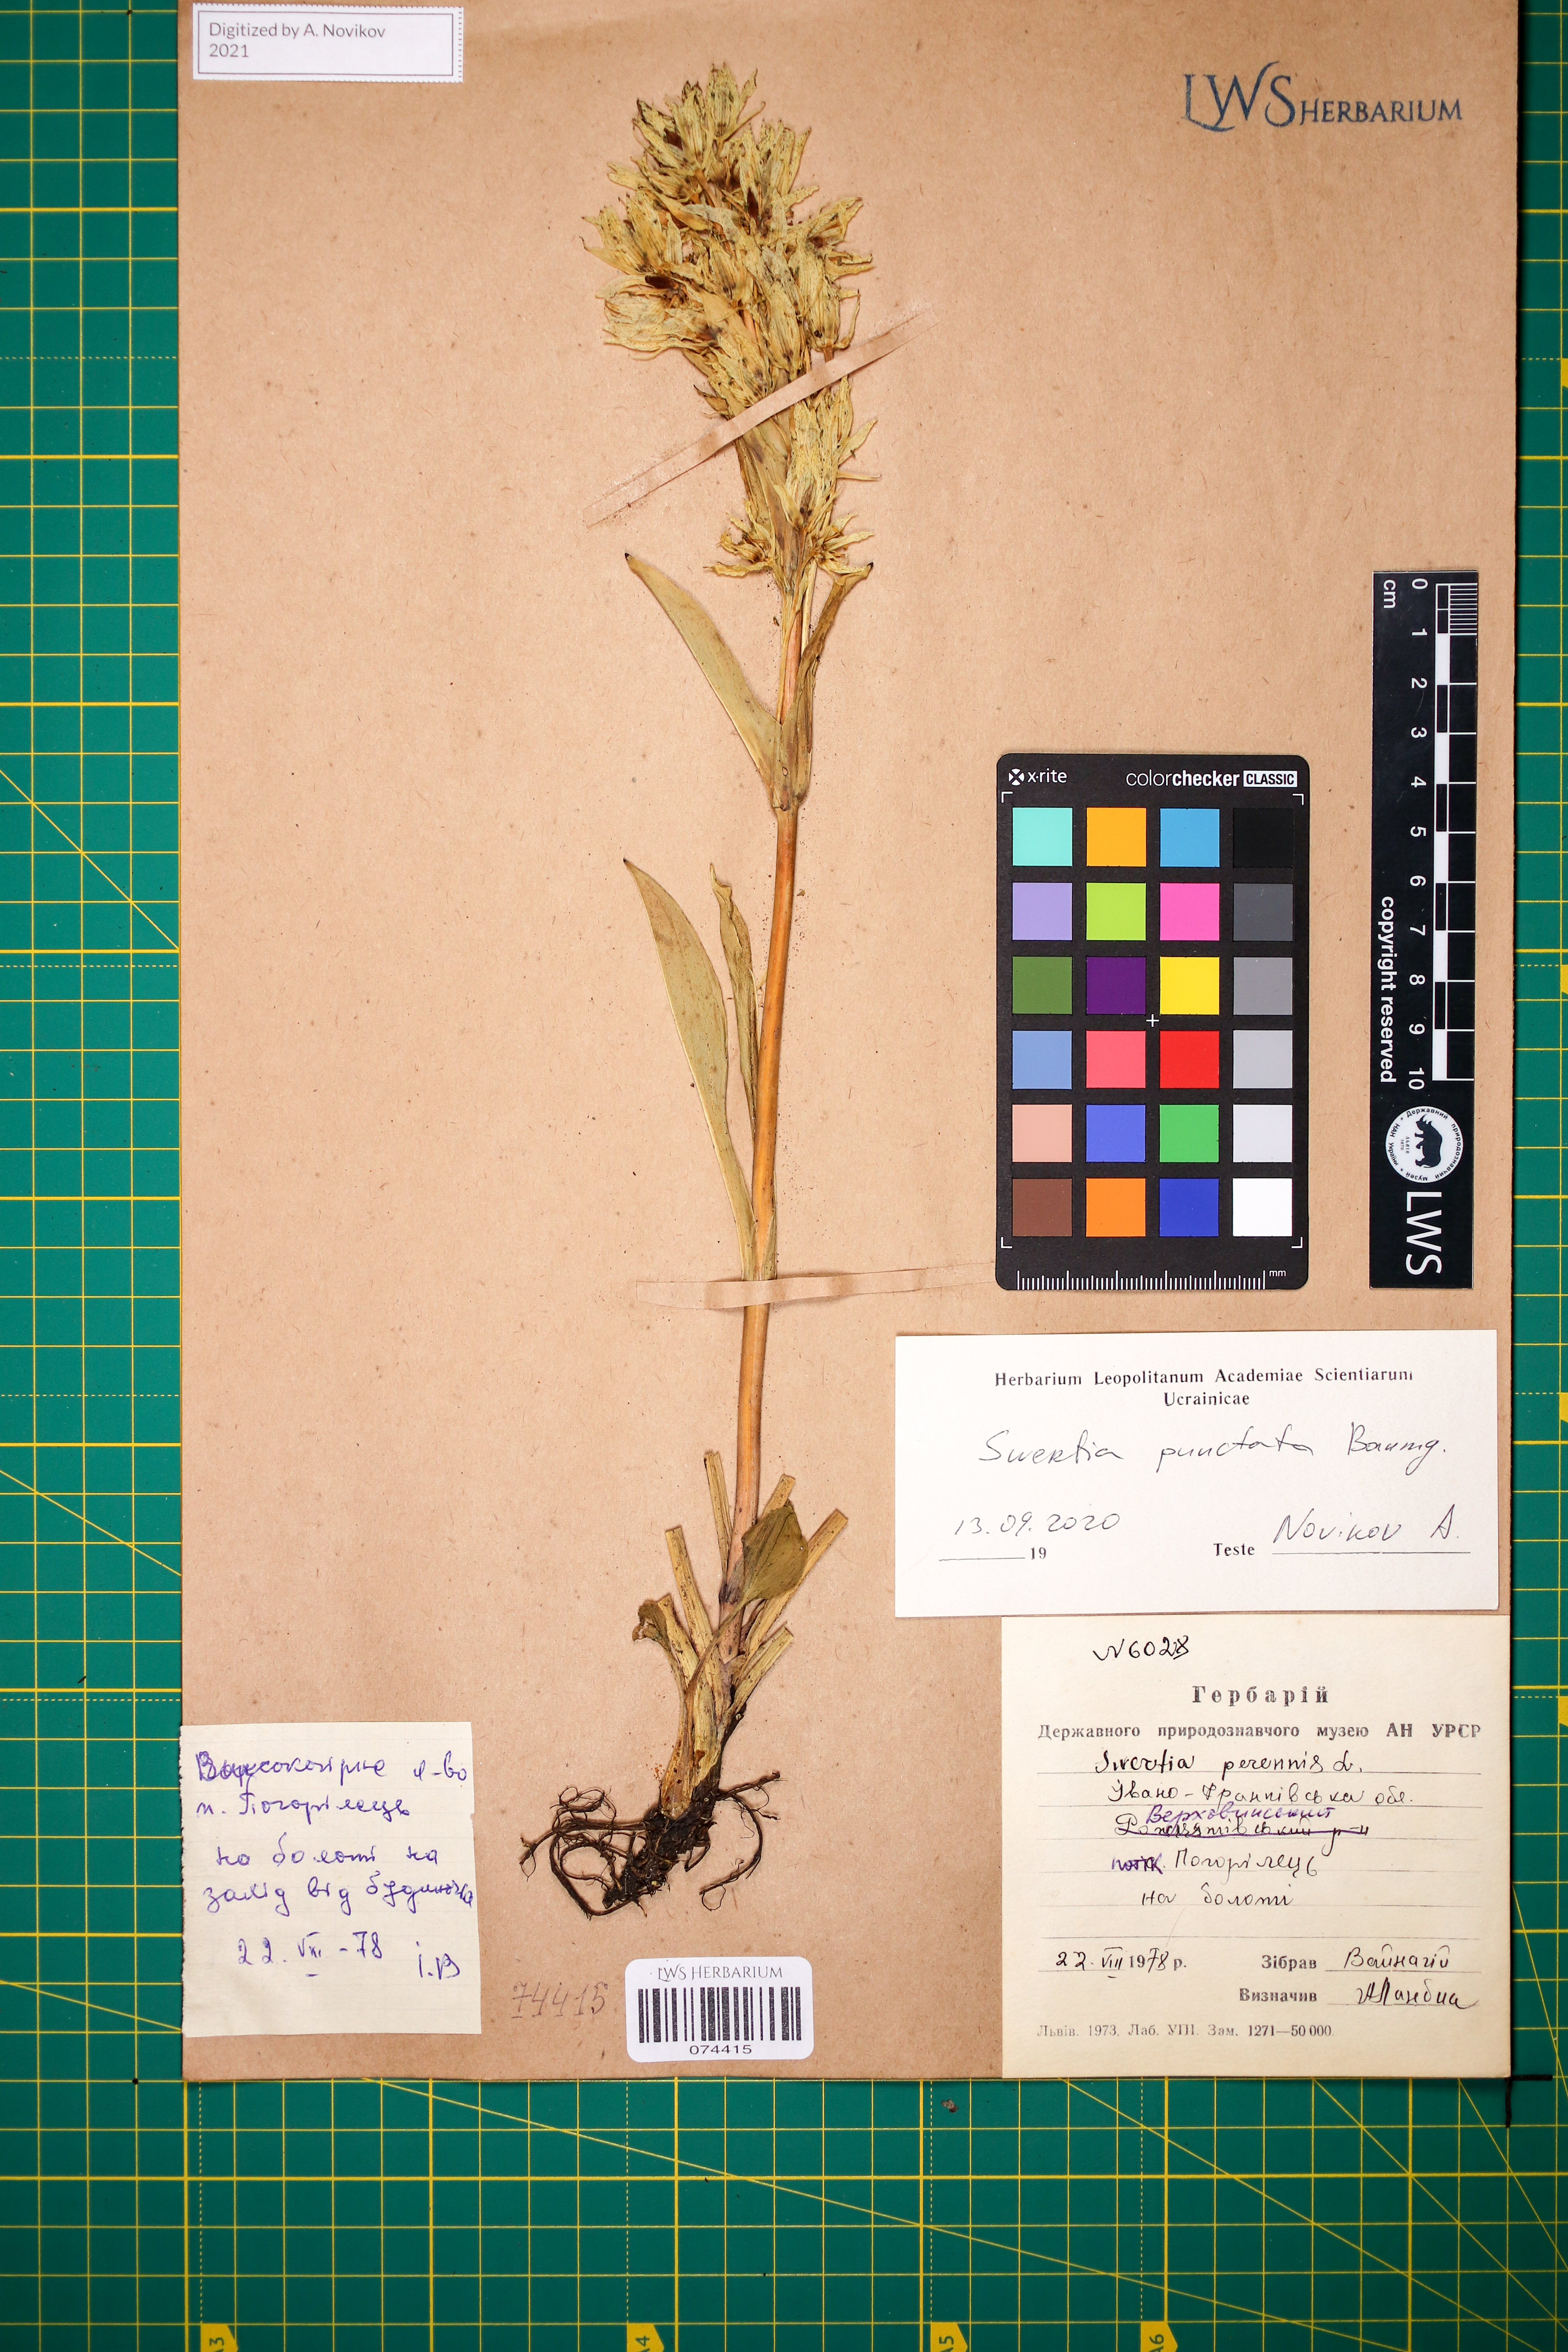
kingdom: Plantae
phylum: Tracheophyta
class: Magnoliopsida
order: Gentianales
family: Gentianaceae
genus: Swertia
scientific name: Swertia perennis
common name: Alpine bog swertia
